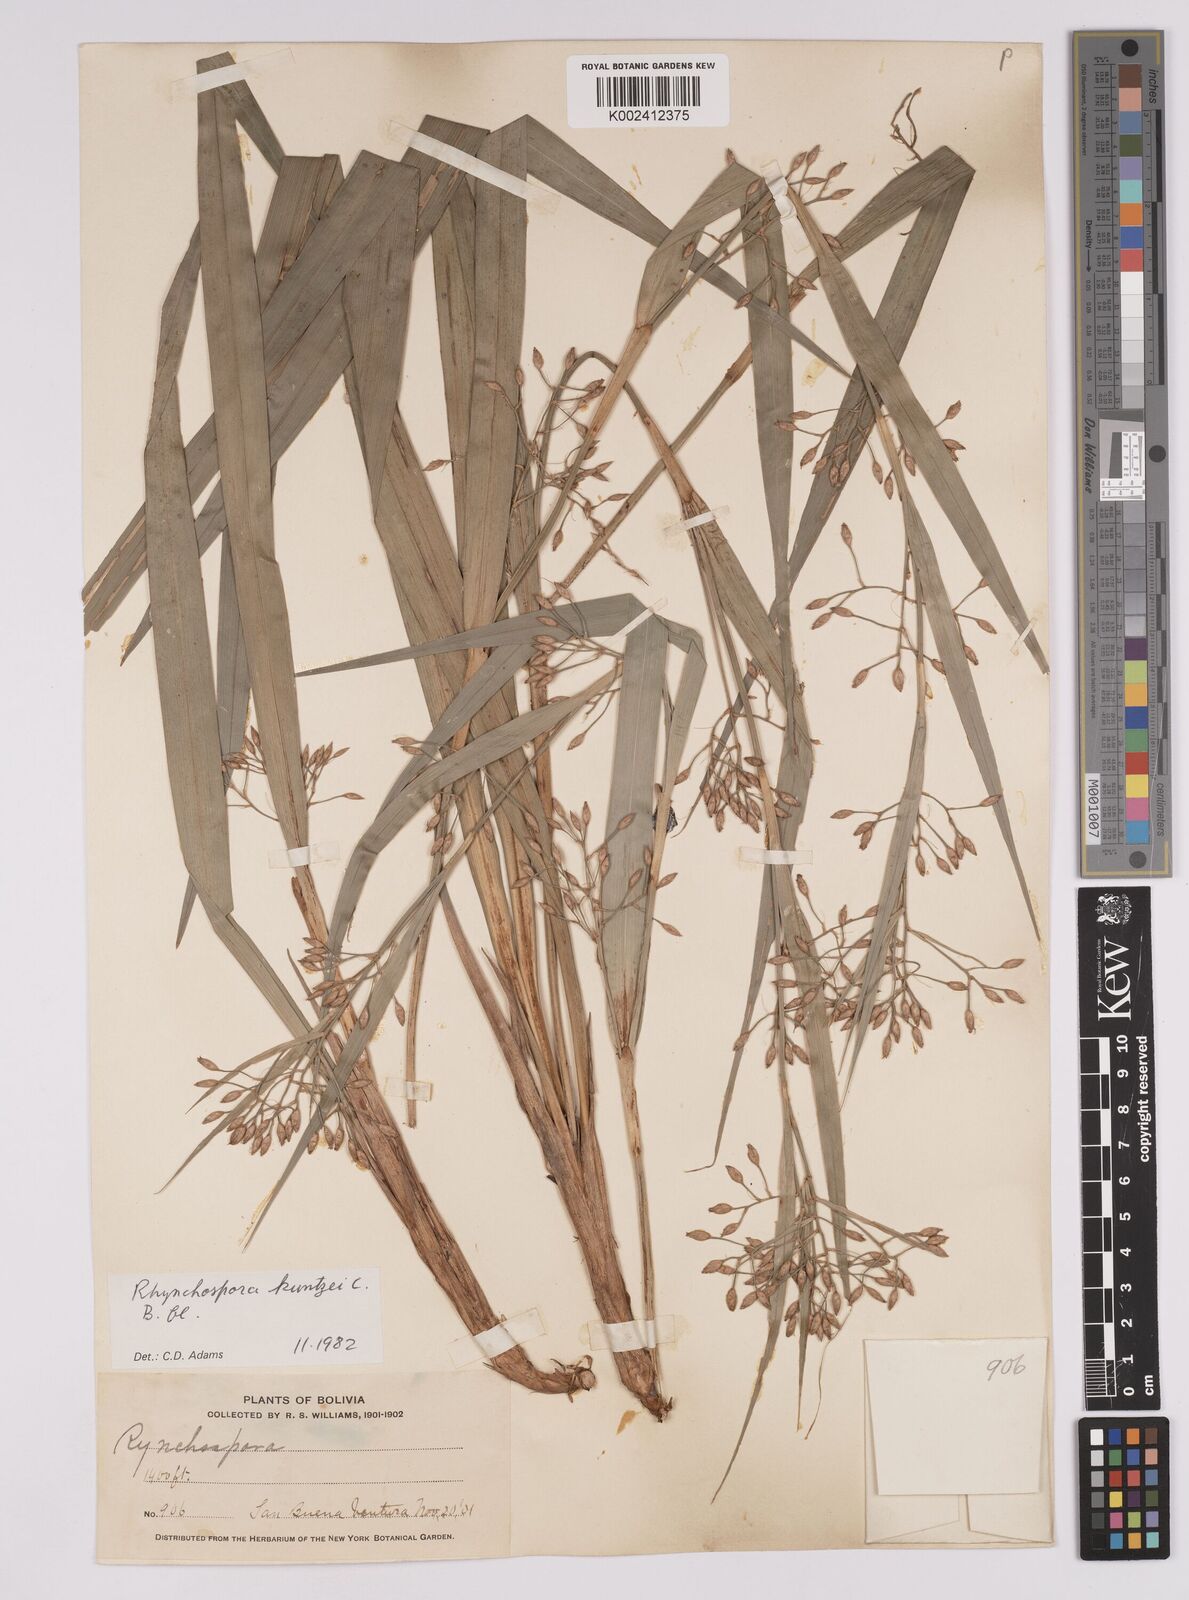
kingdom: Plantae
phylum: Tracheophyta
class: Liliopsida
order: Poales
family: Cyperaceae
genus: Rhynchospora
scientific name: Rhynchospora umbraticola
